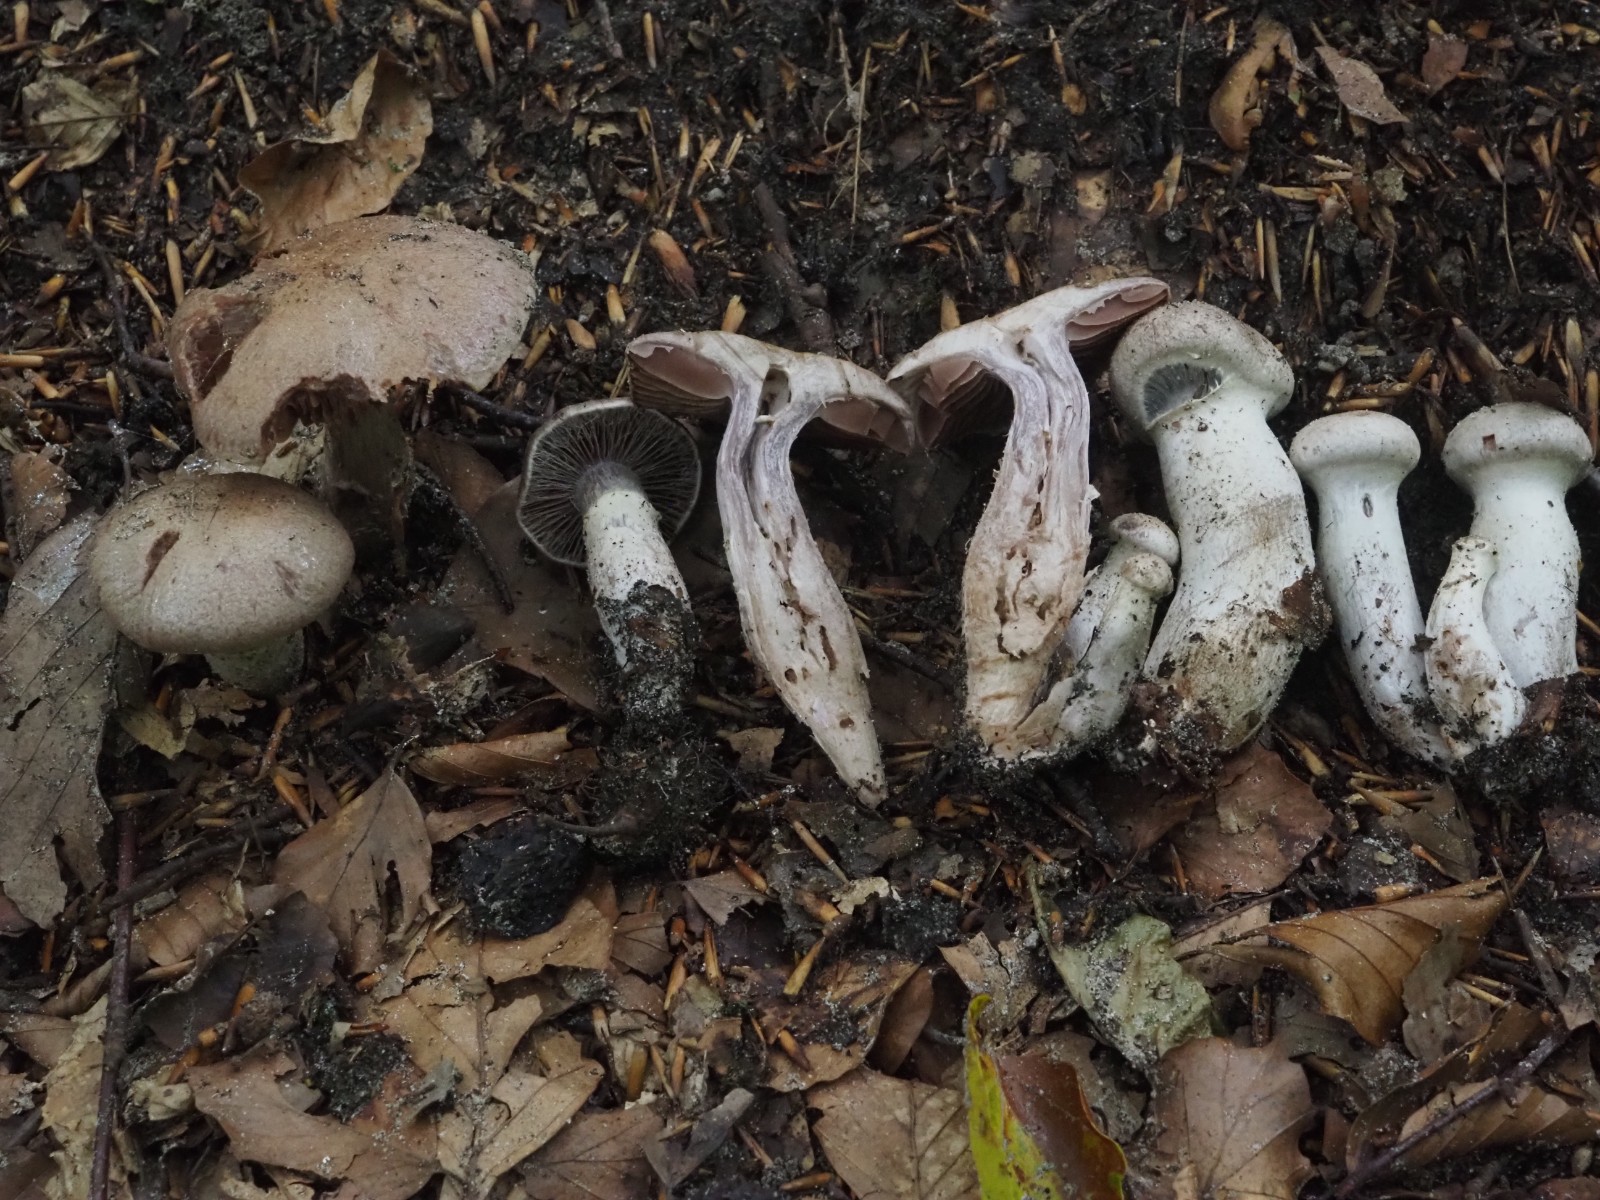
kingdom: Fungi
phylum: Basidiomycota
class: Agaricomycetes
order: Agaricales
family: Cortinariaceae
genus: Cortinarius
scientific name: Cortinarius torvus
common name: champignonagtig slørhat
